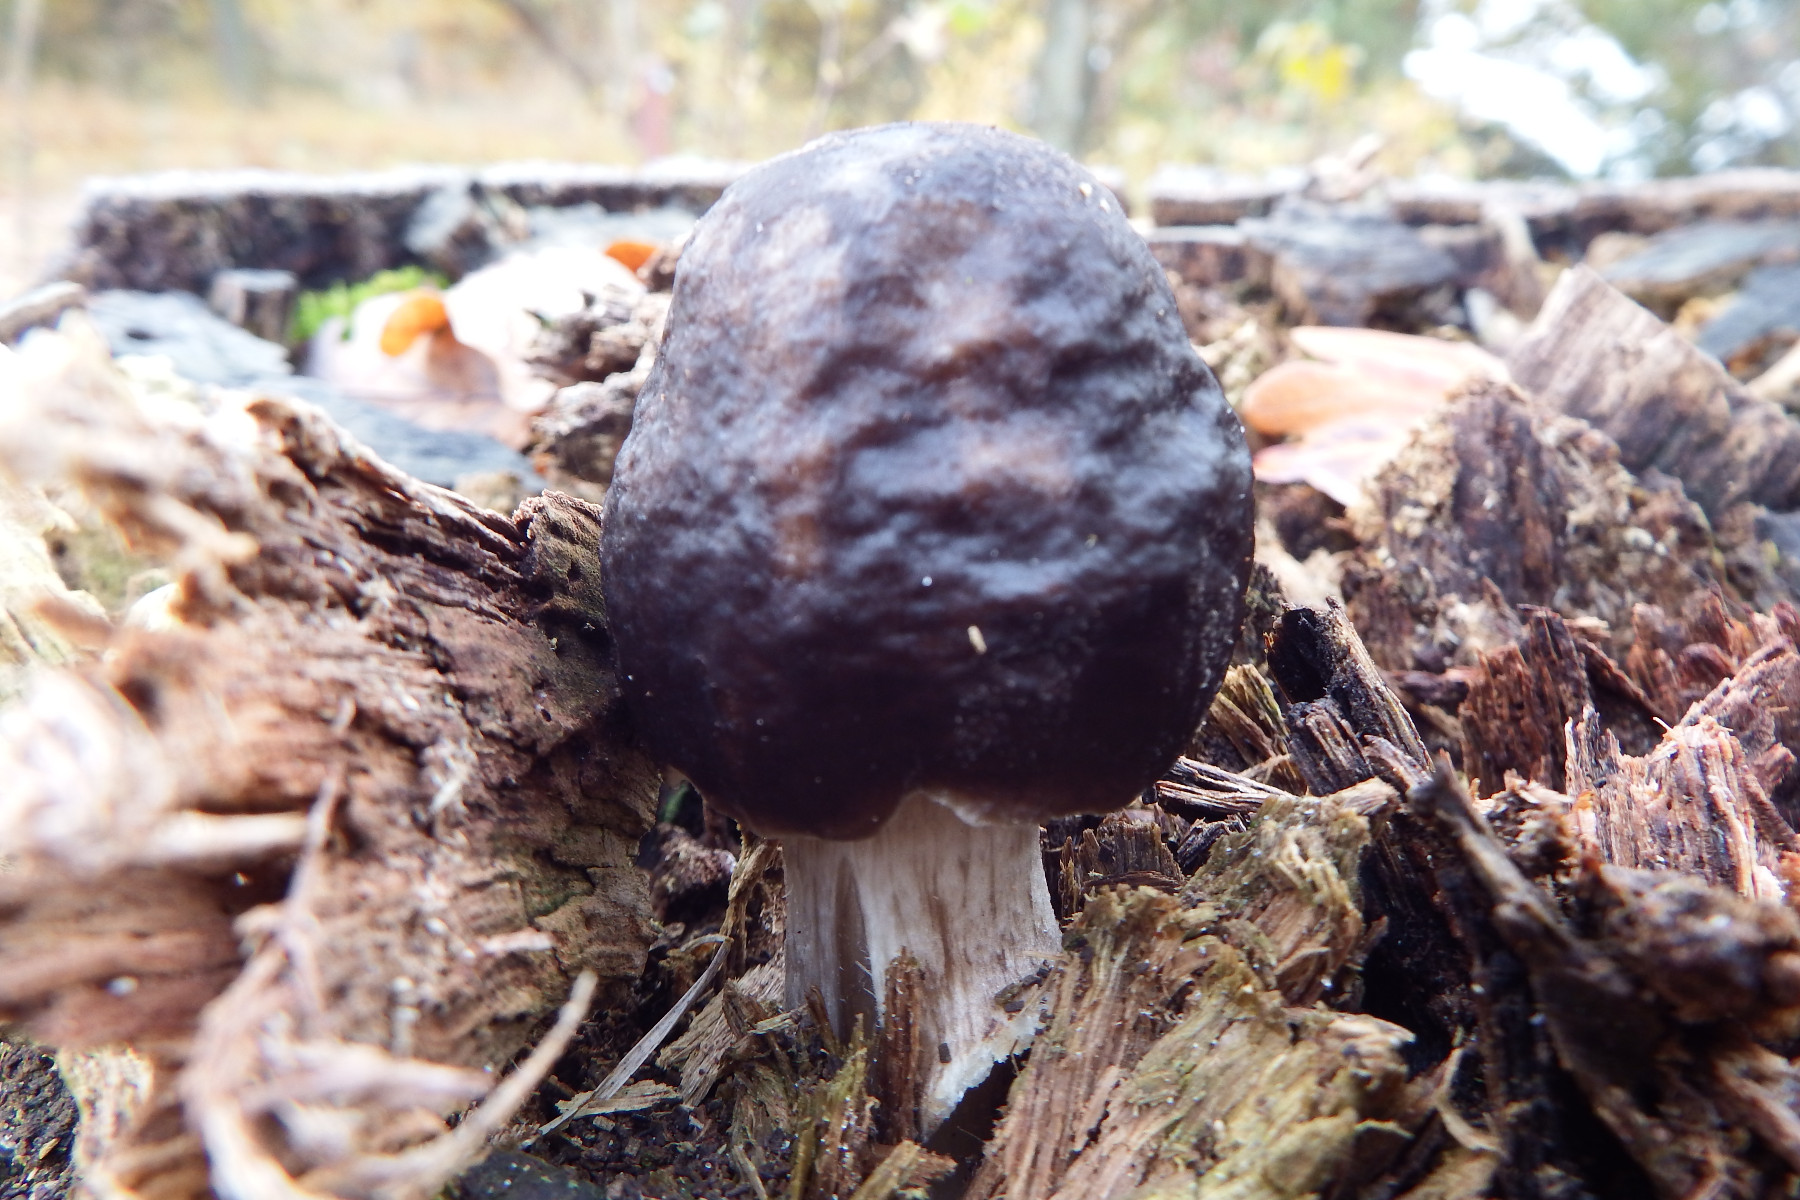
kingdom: Fungi
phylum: Basidiomycota
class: Agaricomycetes
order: Agaricales
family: Pluteaceae
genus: Pluteus
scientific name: Pluteus cervinus
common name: sodfarvet skærmhat
